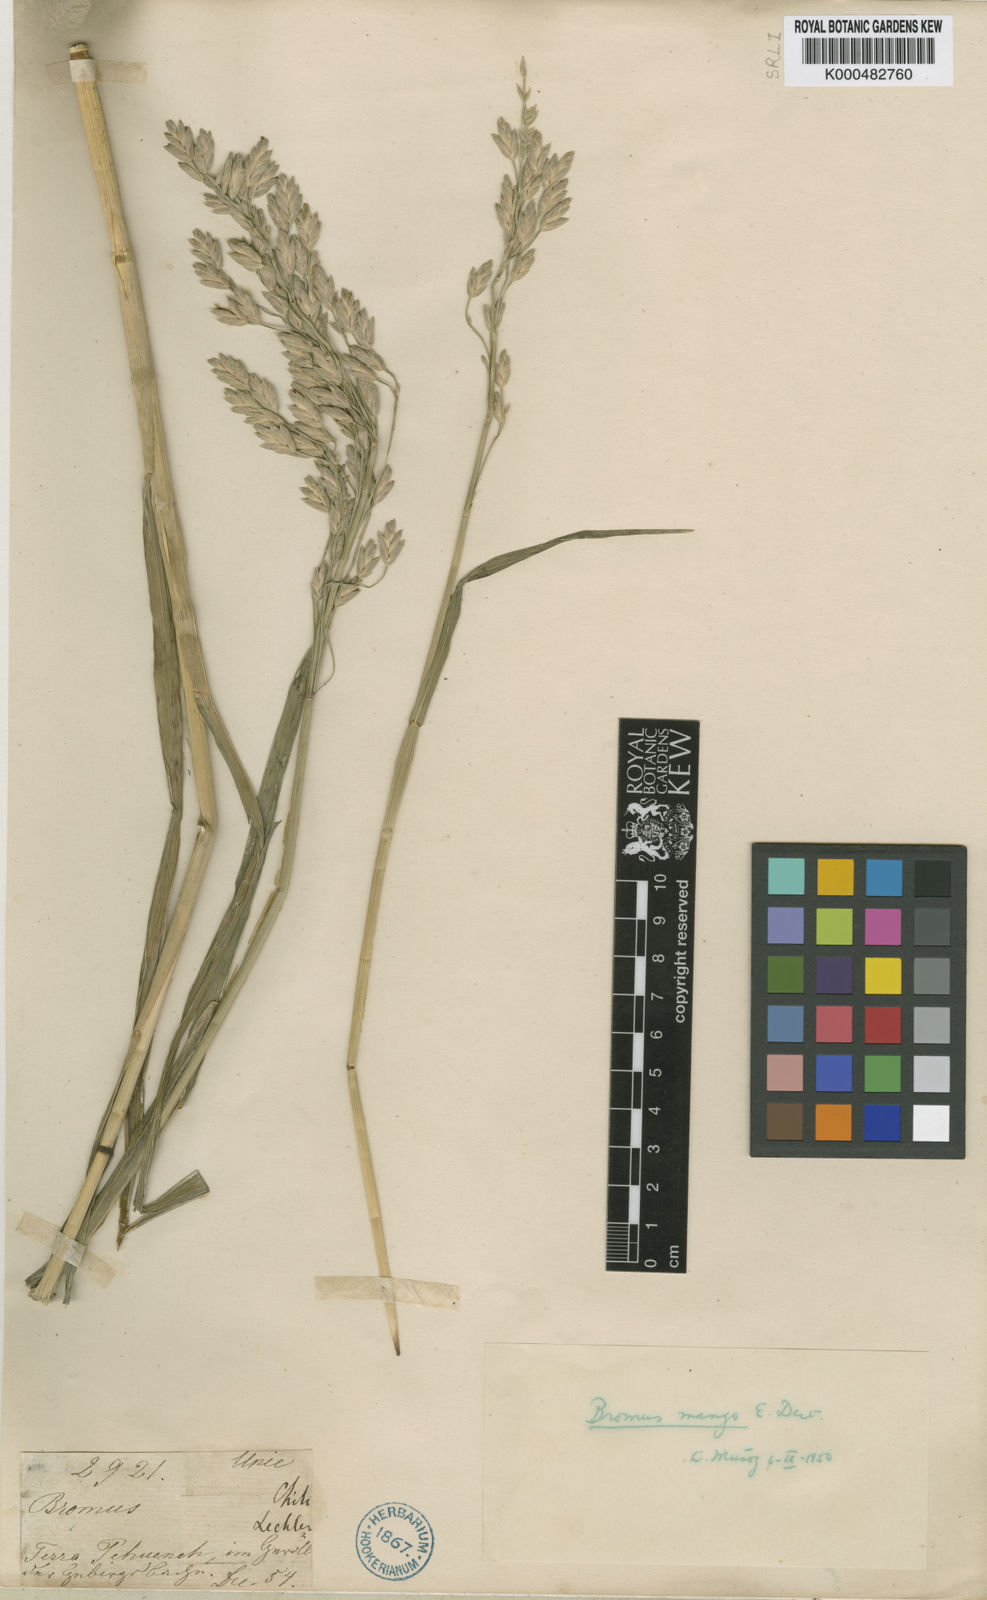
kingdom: Plantae
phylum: Tracheophyta
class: Liliopsida
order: Poales
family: Poaceae
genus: Bromus
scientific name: Bromus mango
